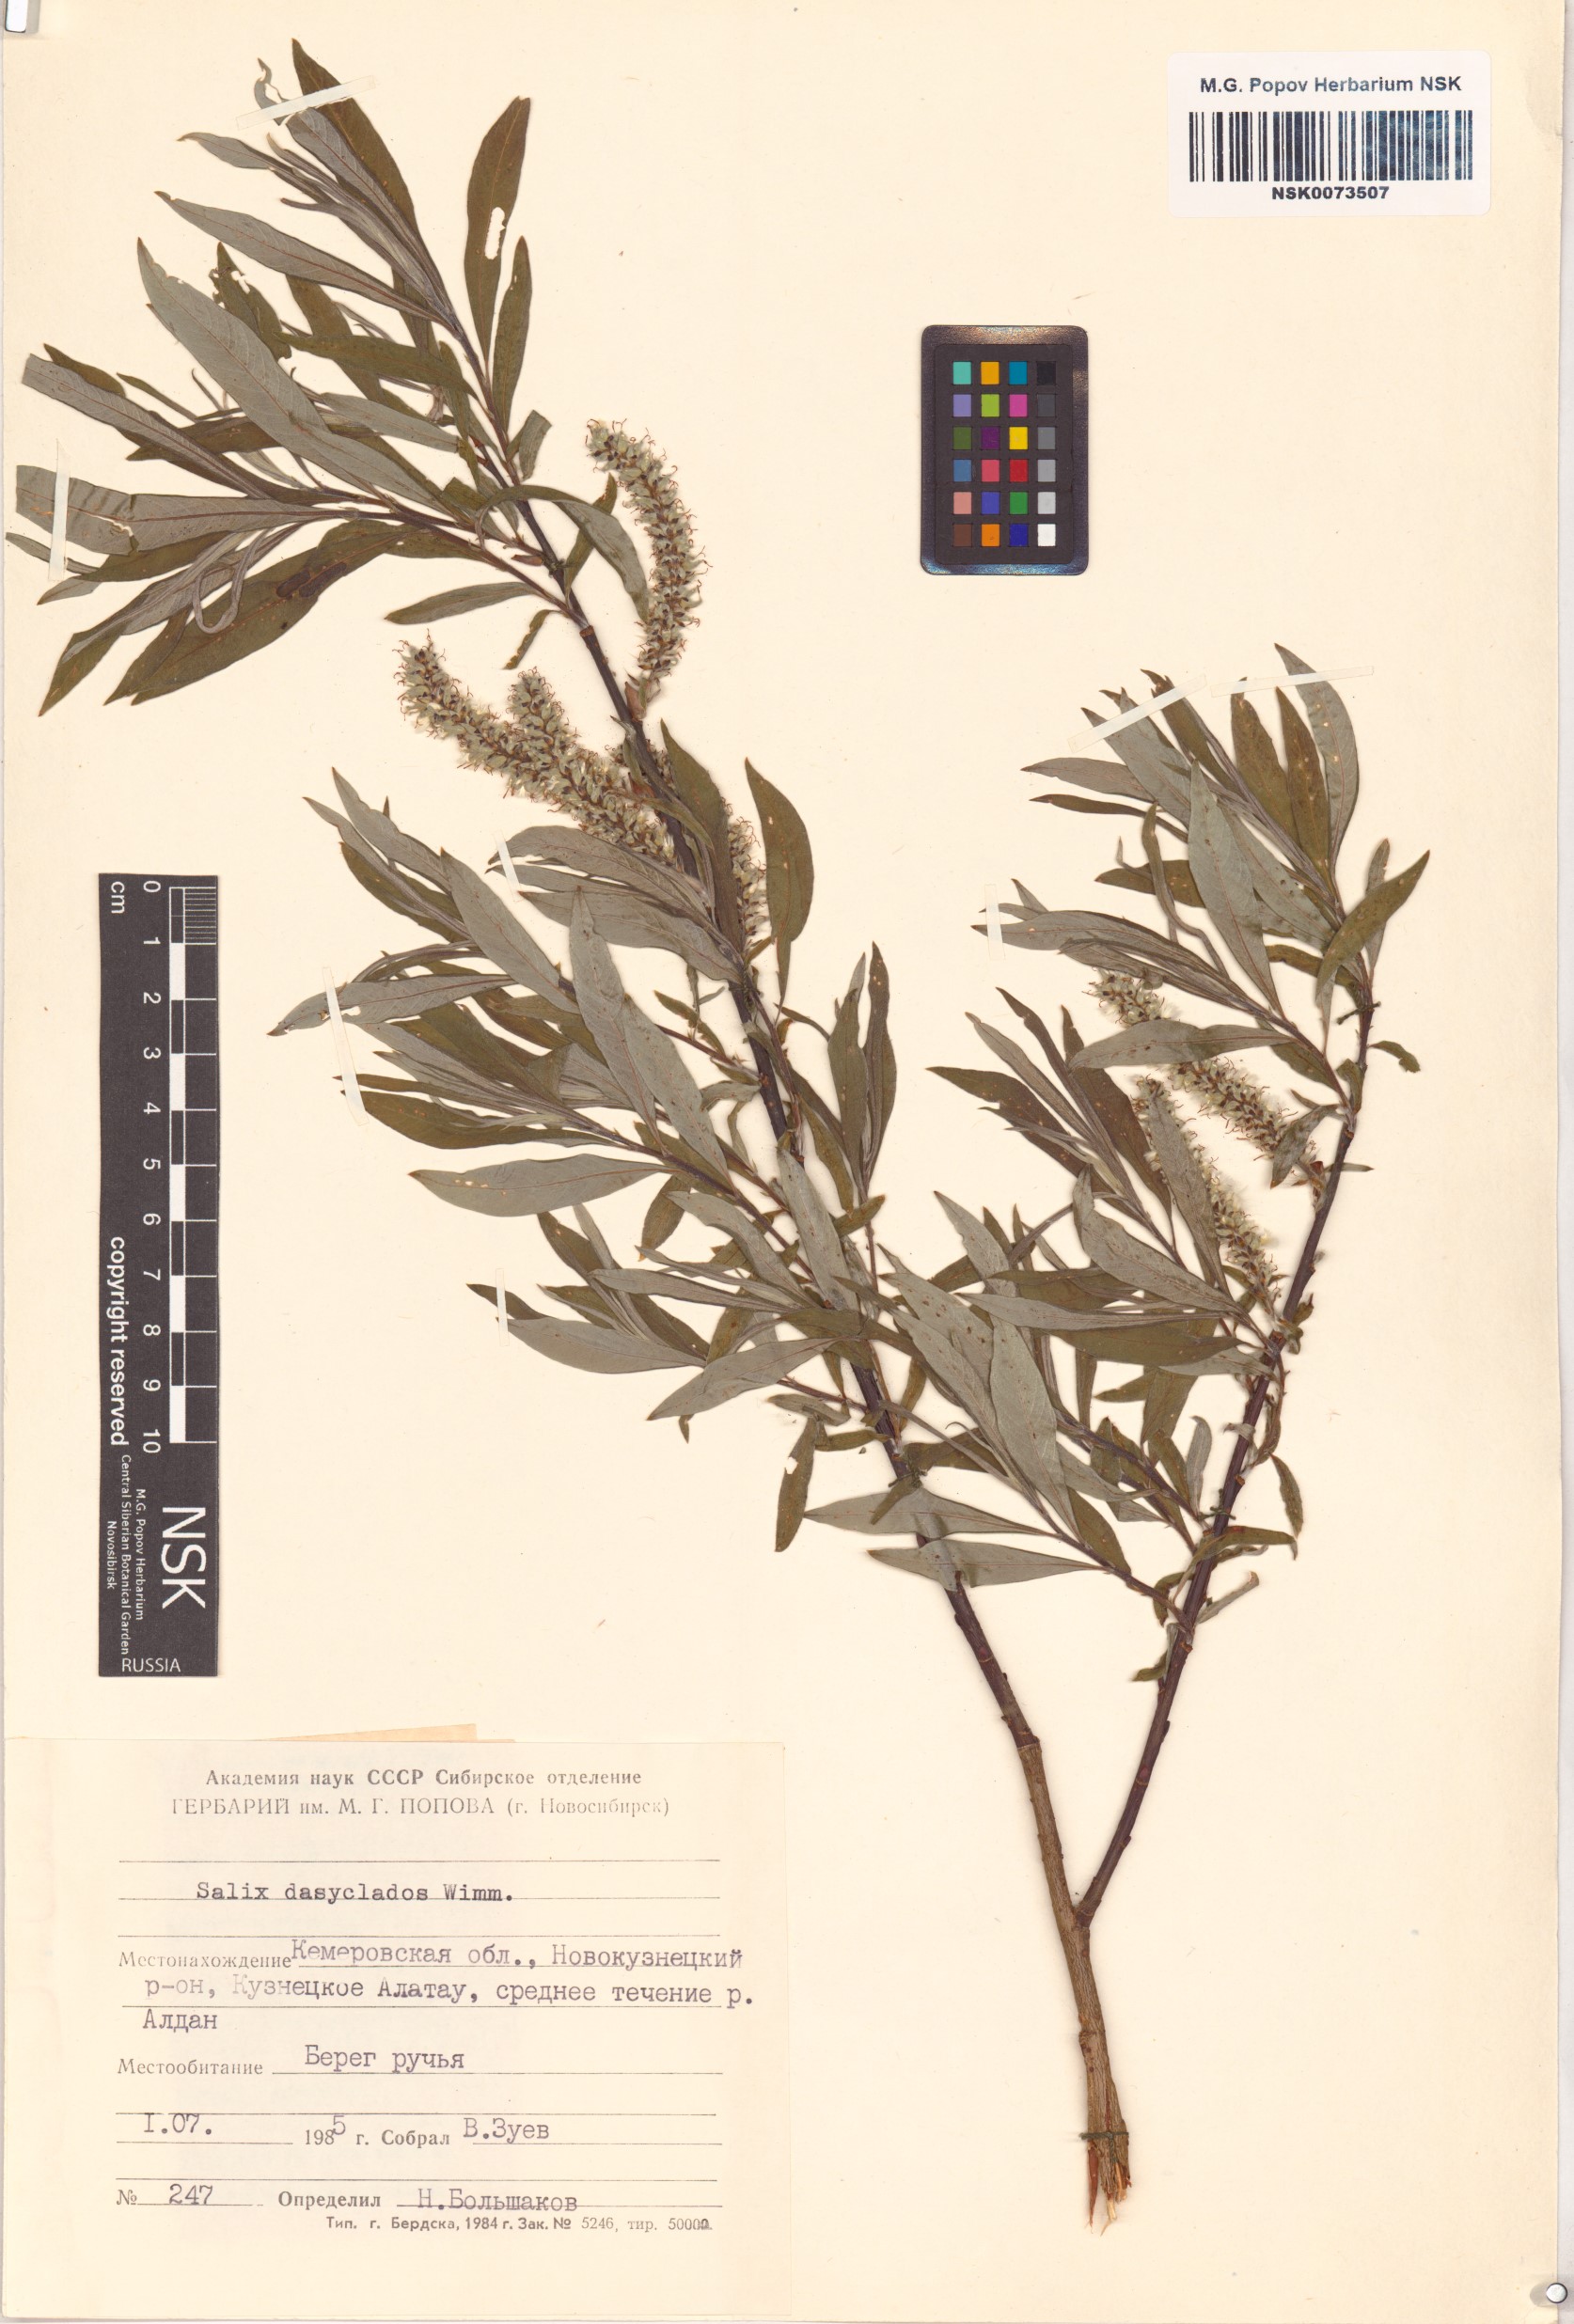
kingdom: Plantae
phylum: Tracheophyta
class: Magnoliopsida
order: Malpighiales
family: Salicaceae
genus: Salix
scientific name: Salix gmelinii
